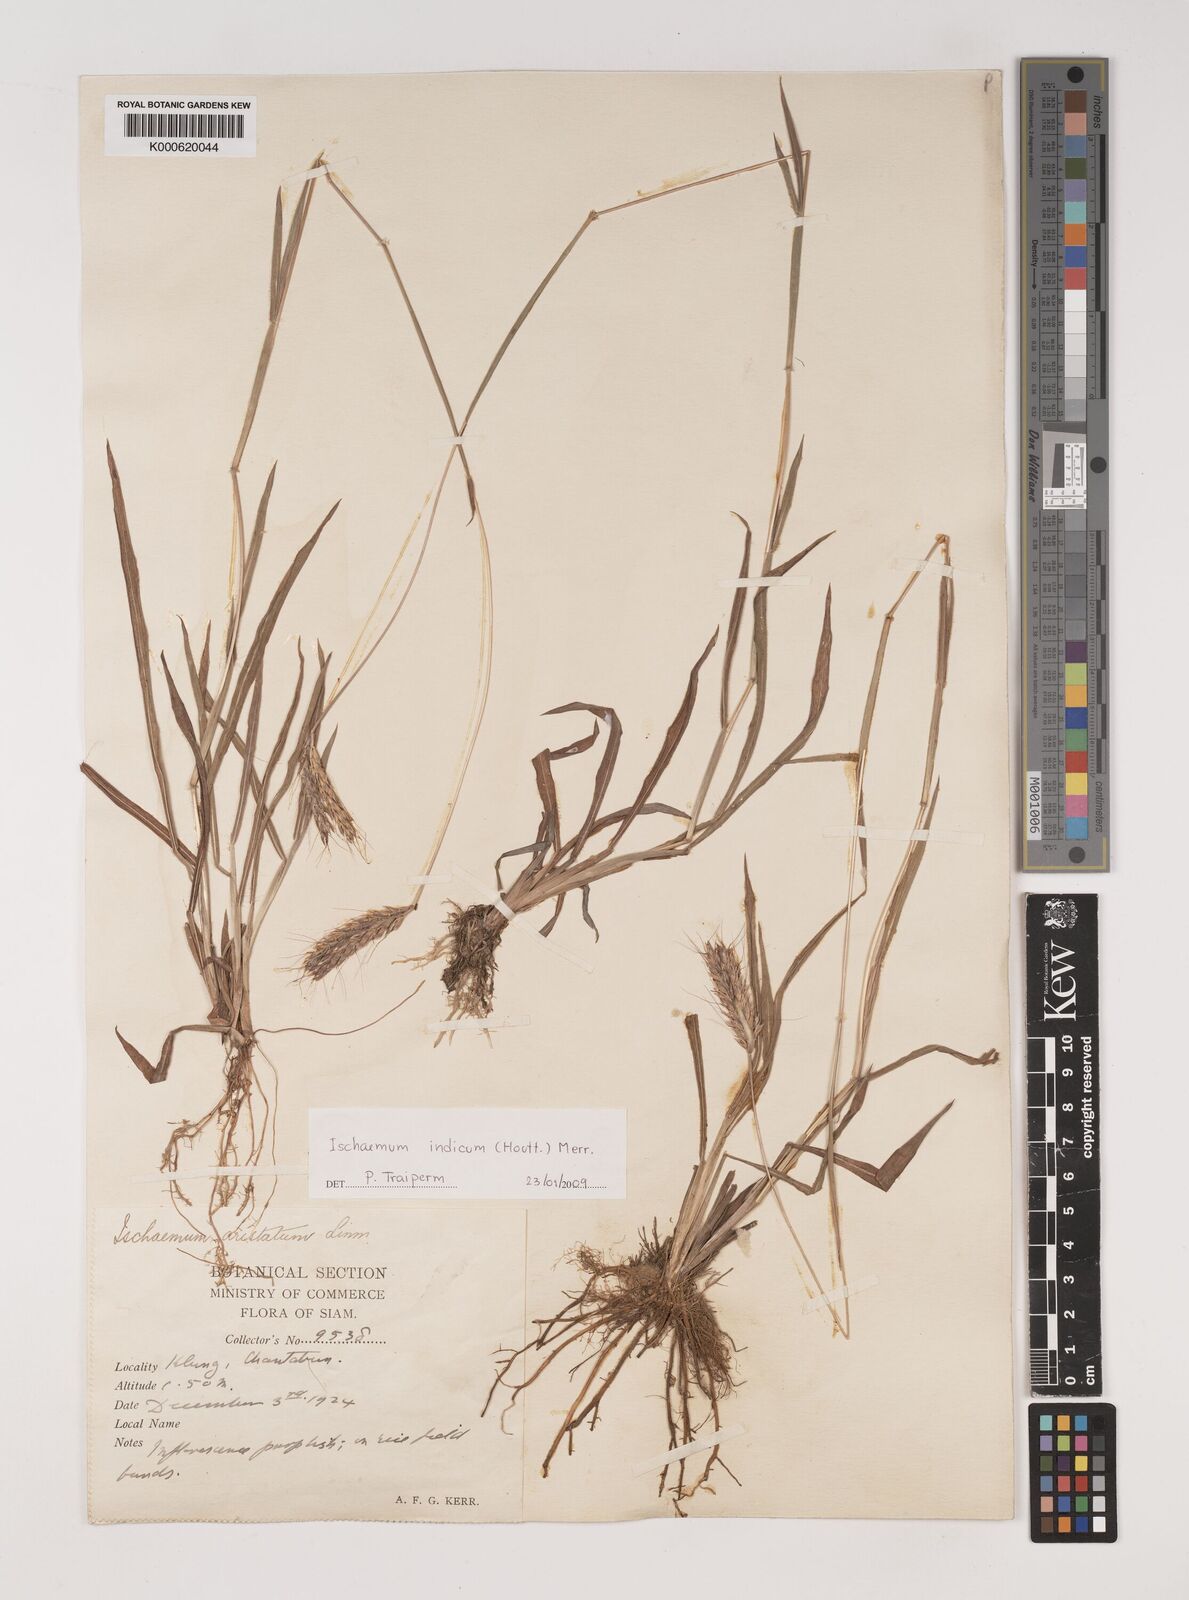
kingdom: Plantae
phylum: Tracheophyta
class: Liliopsida
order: Poales
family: Poaceae
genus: Polytrias
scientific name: Polytrias indica
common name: Indian murainagrass
